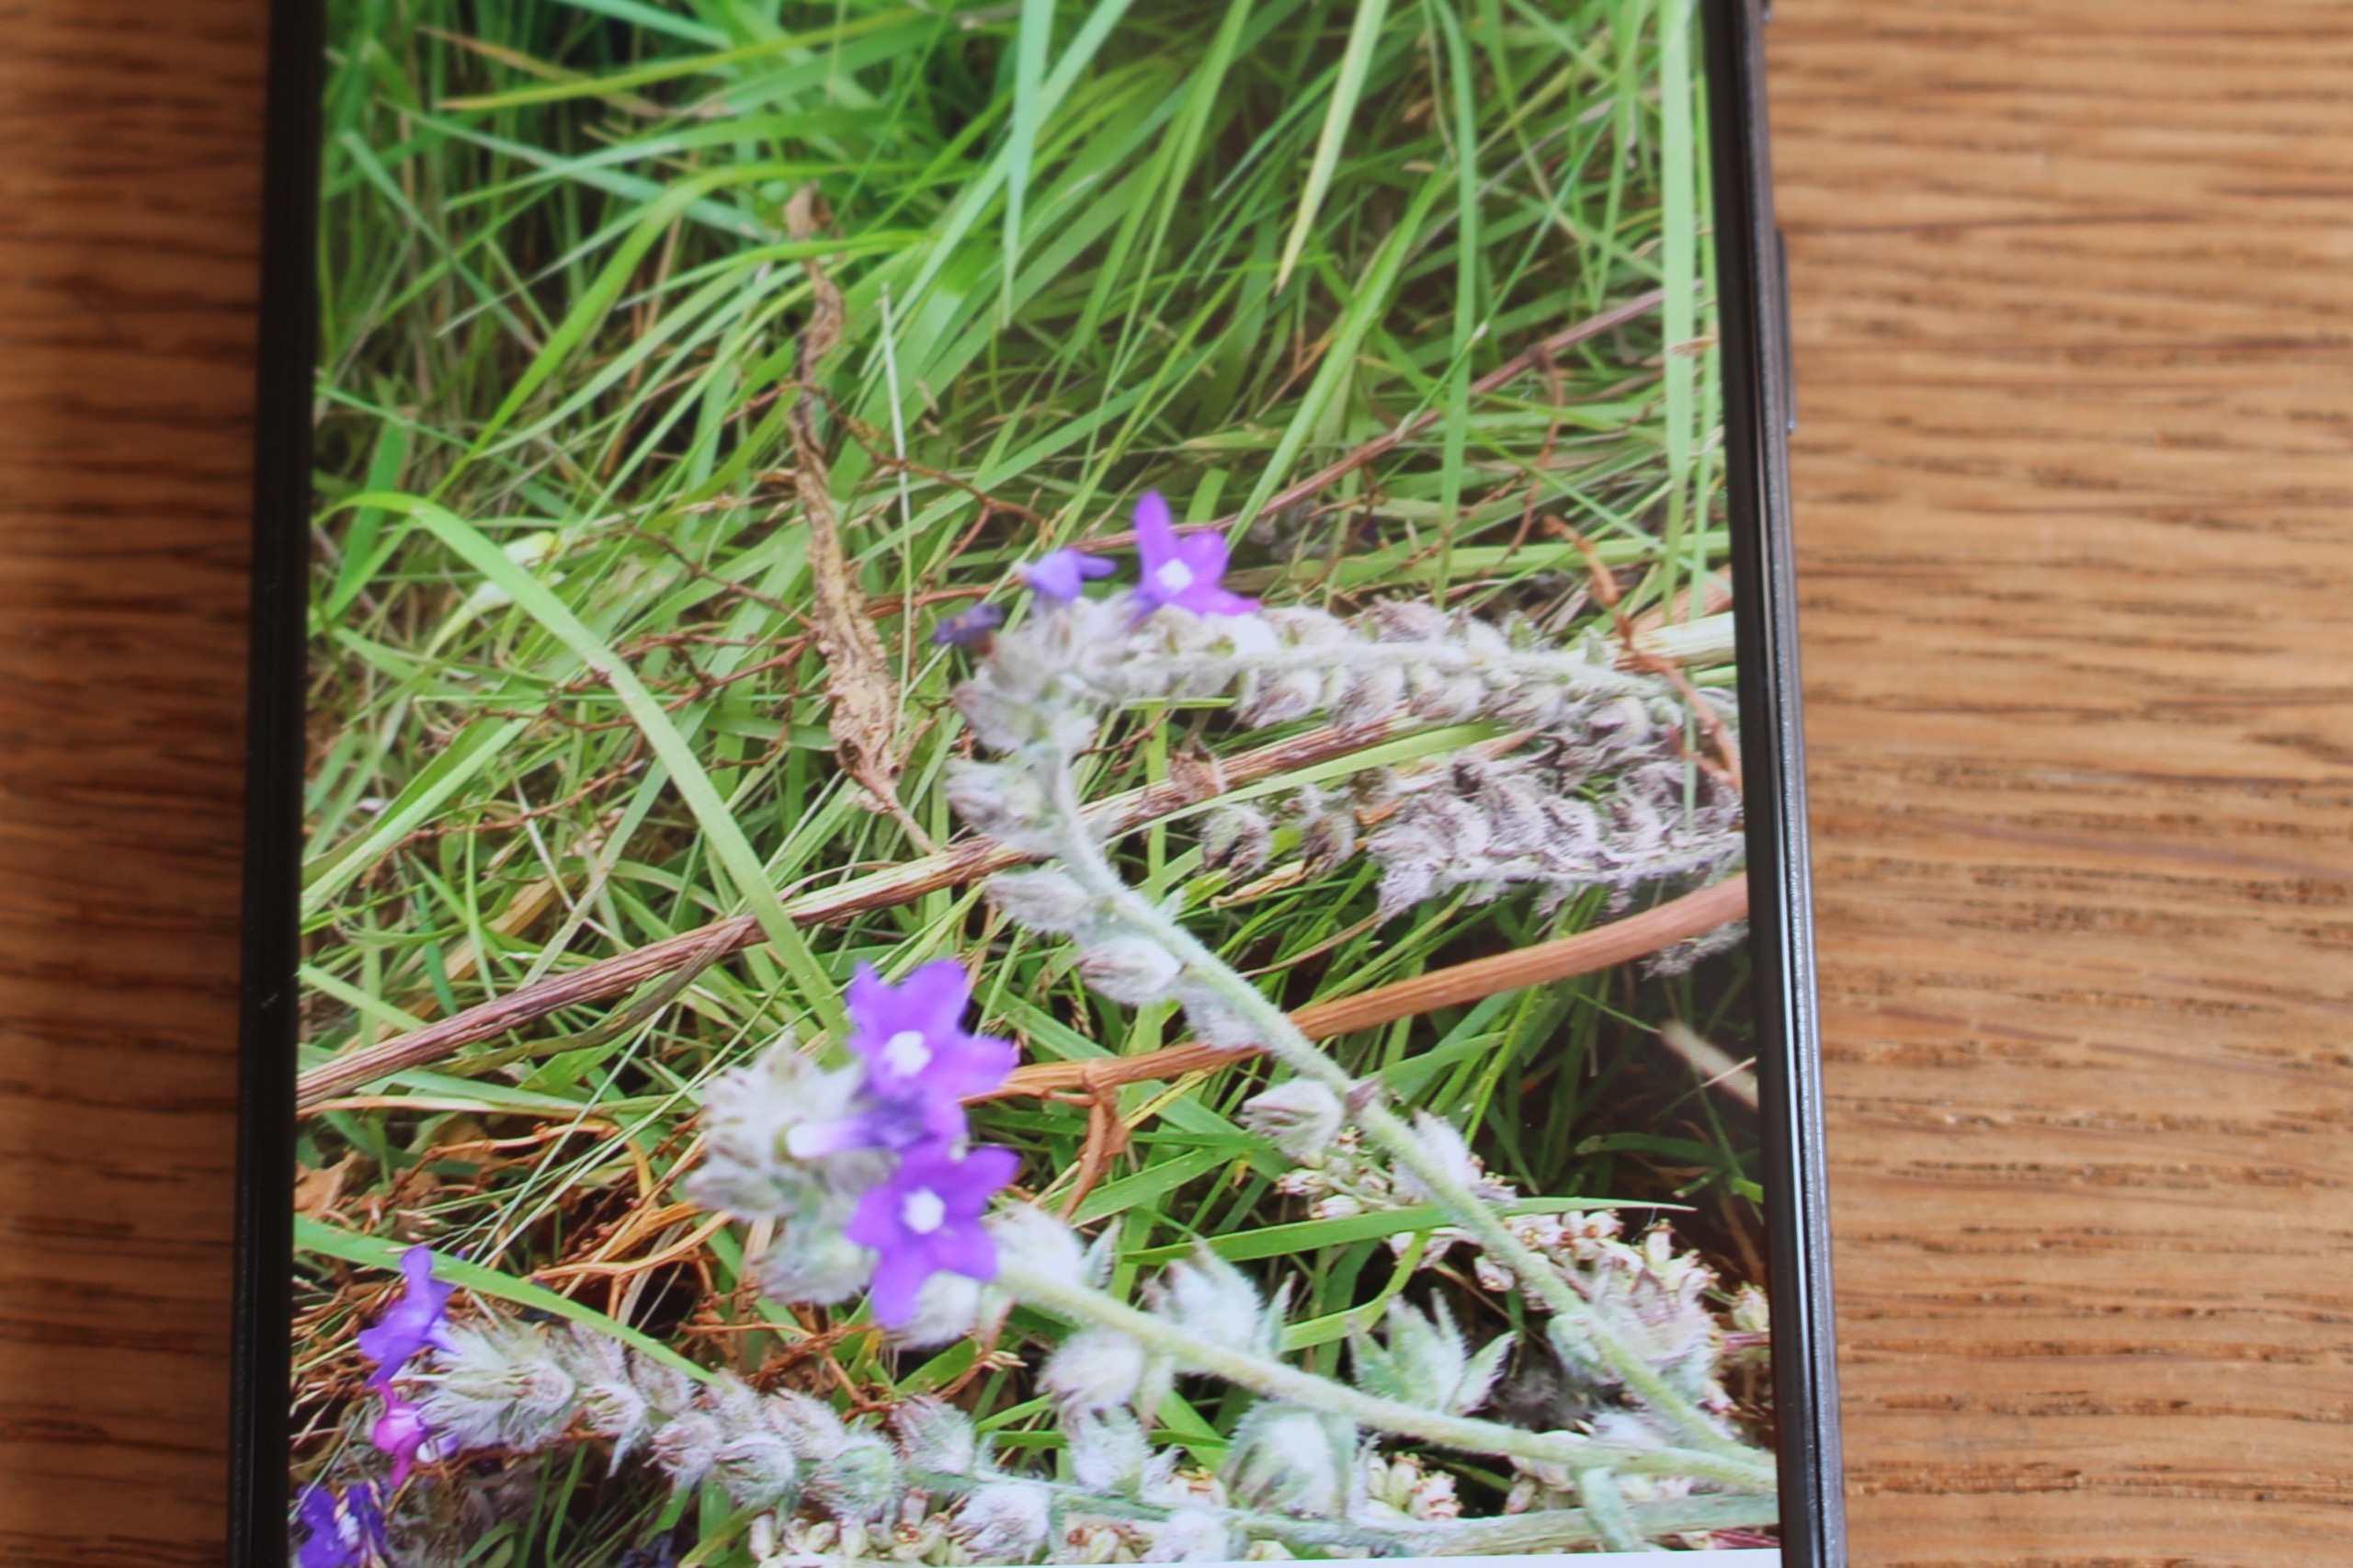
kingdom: Plantae
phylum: Tracheophyta
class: Magnoliopsida
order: Boraginales
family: Boraginaceae
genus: Anchusa
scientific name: Anchusa officinalis
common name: Læge-oksetunge
